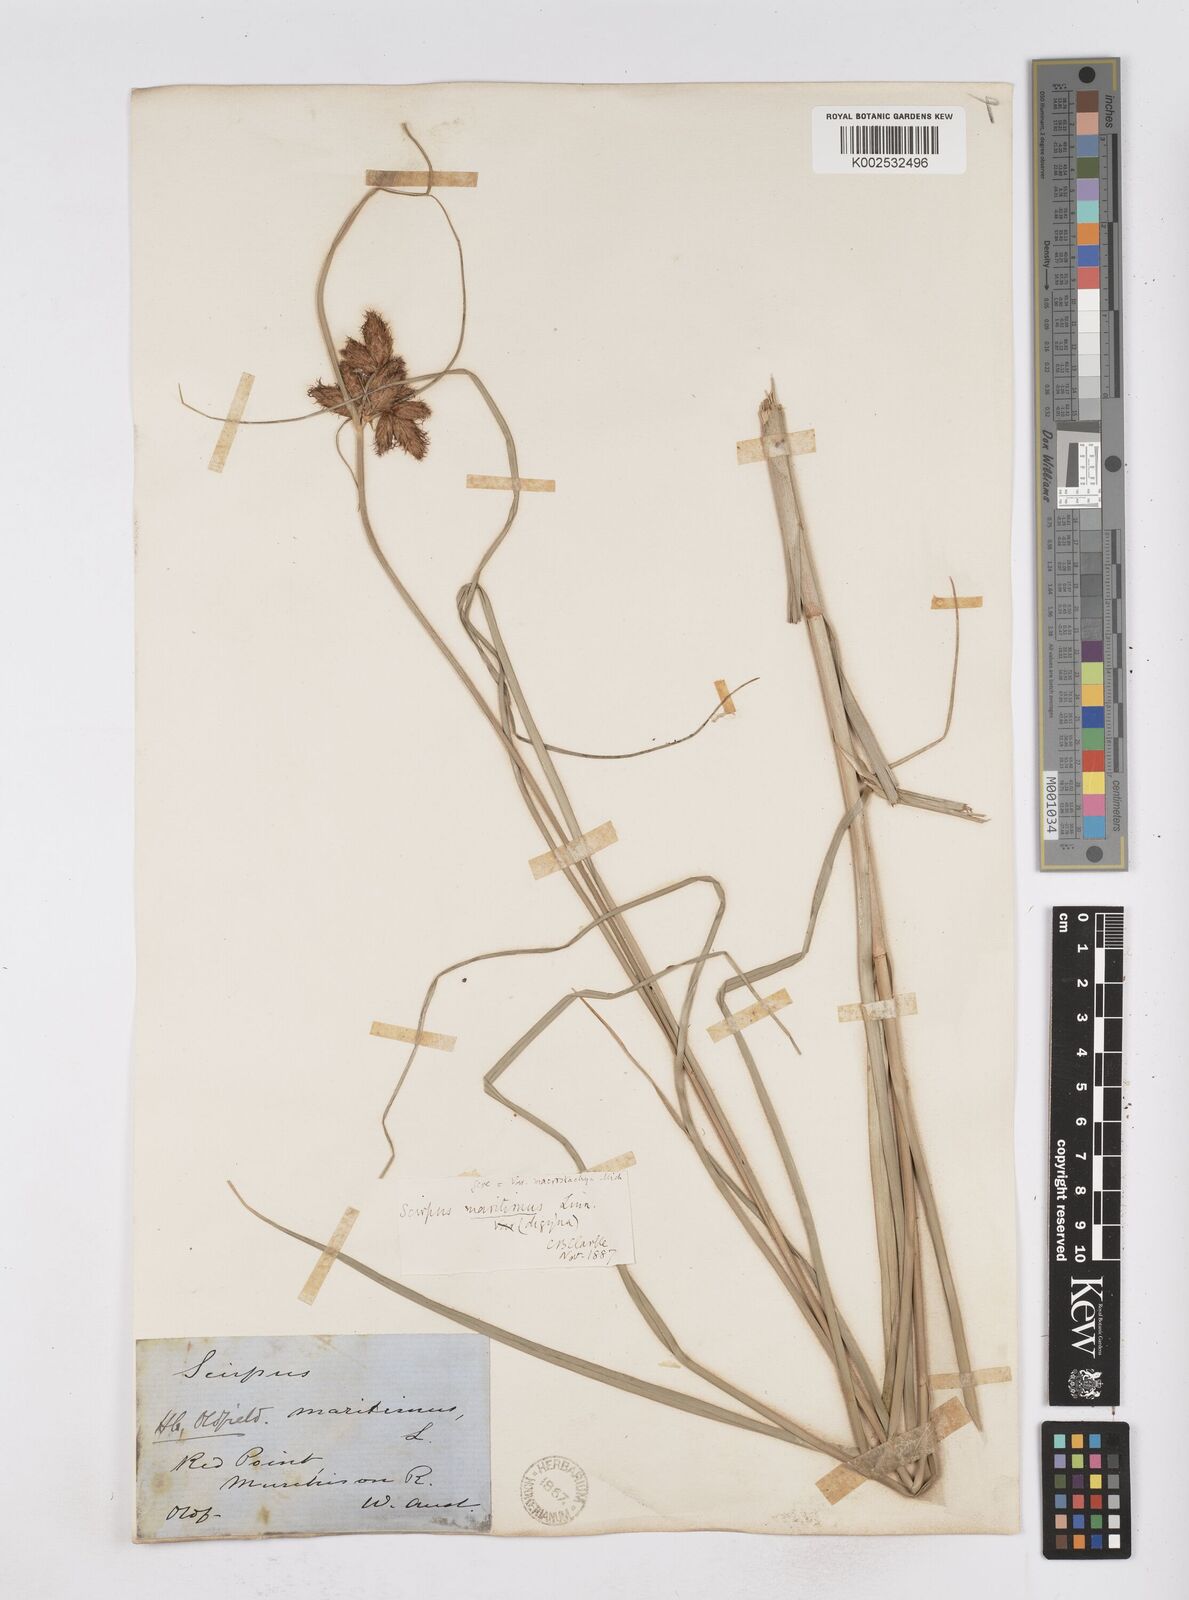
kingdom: Plantae
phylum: Tracheophyta
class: Liliopsida
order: Poales
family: Cyperaceae
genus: Bolboschoenus
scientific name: Bolboschoenus maritimus
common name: Sea club-rush
